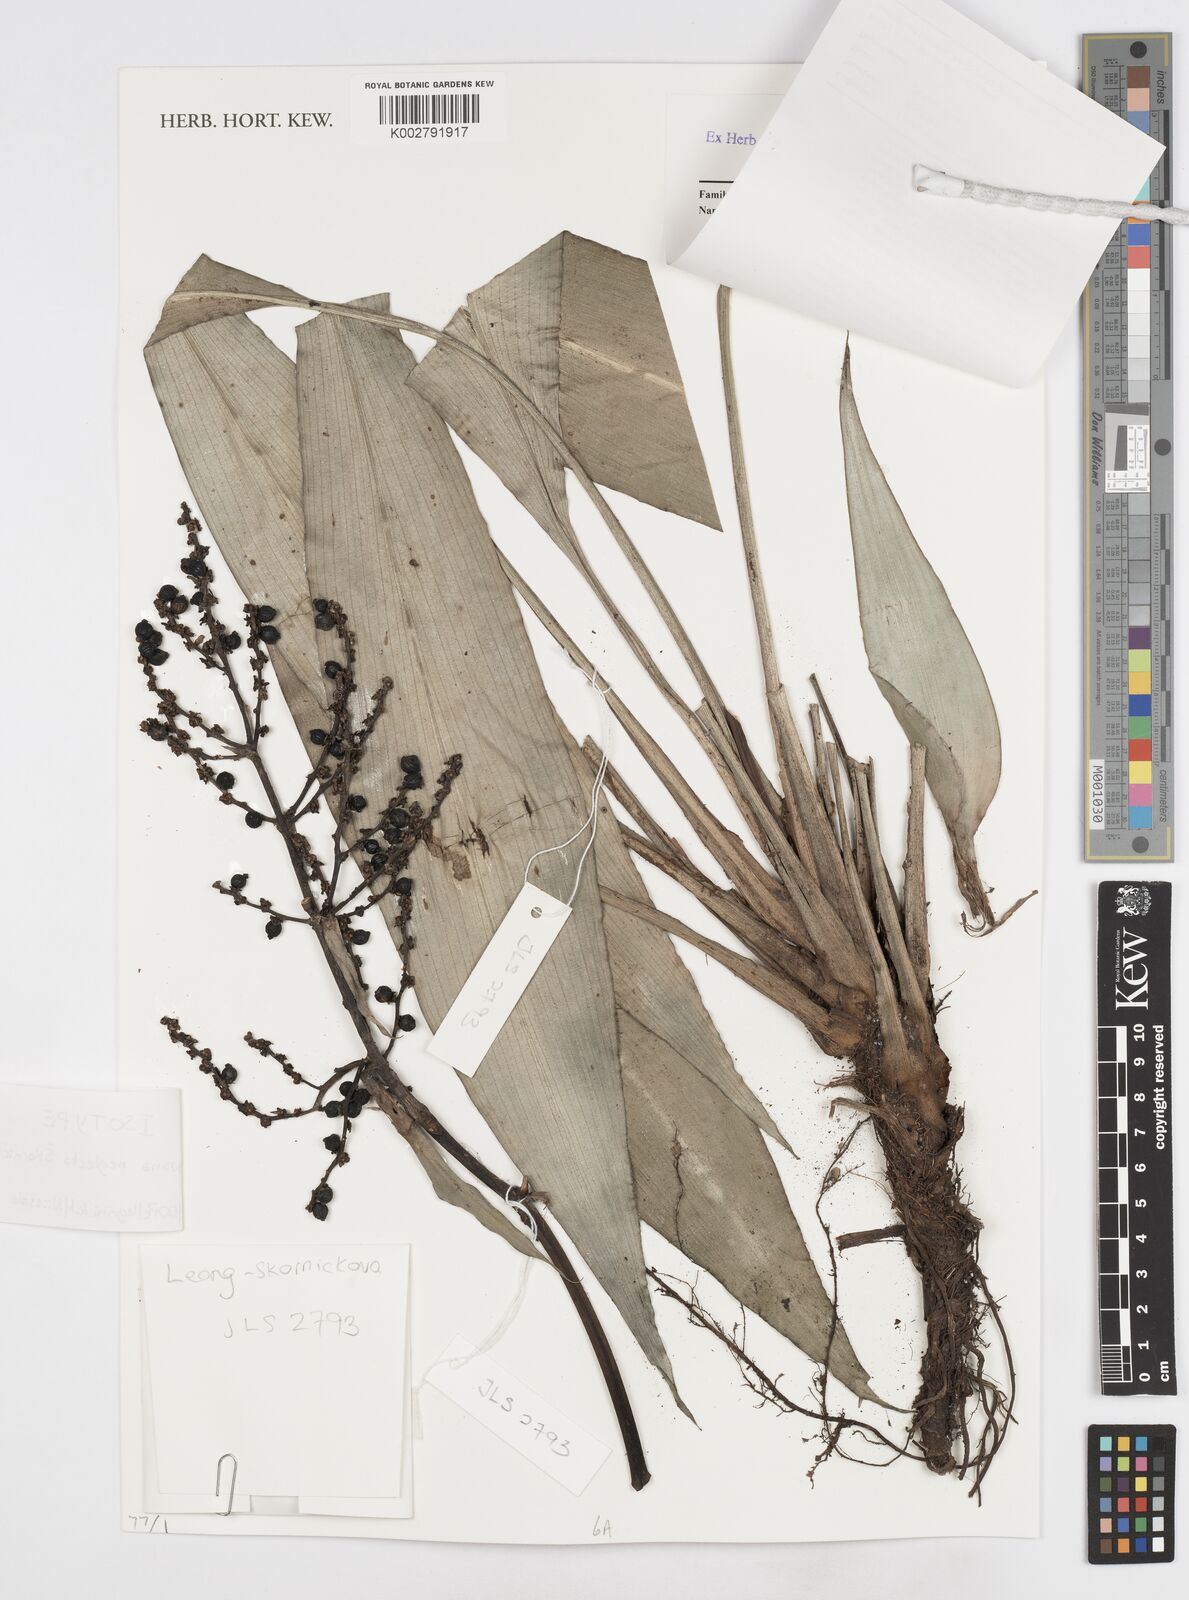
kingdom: Plantae
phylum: Tracheophyta
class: Liliopsida
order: Commelinales
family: Hanguanaceae
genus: Hanguana
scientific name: Hanguana neglecta
